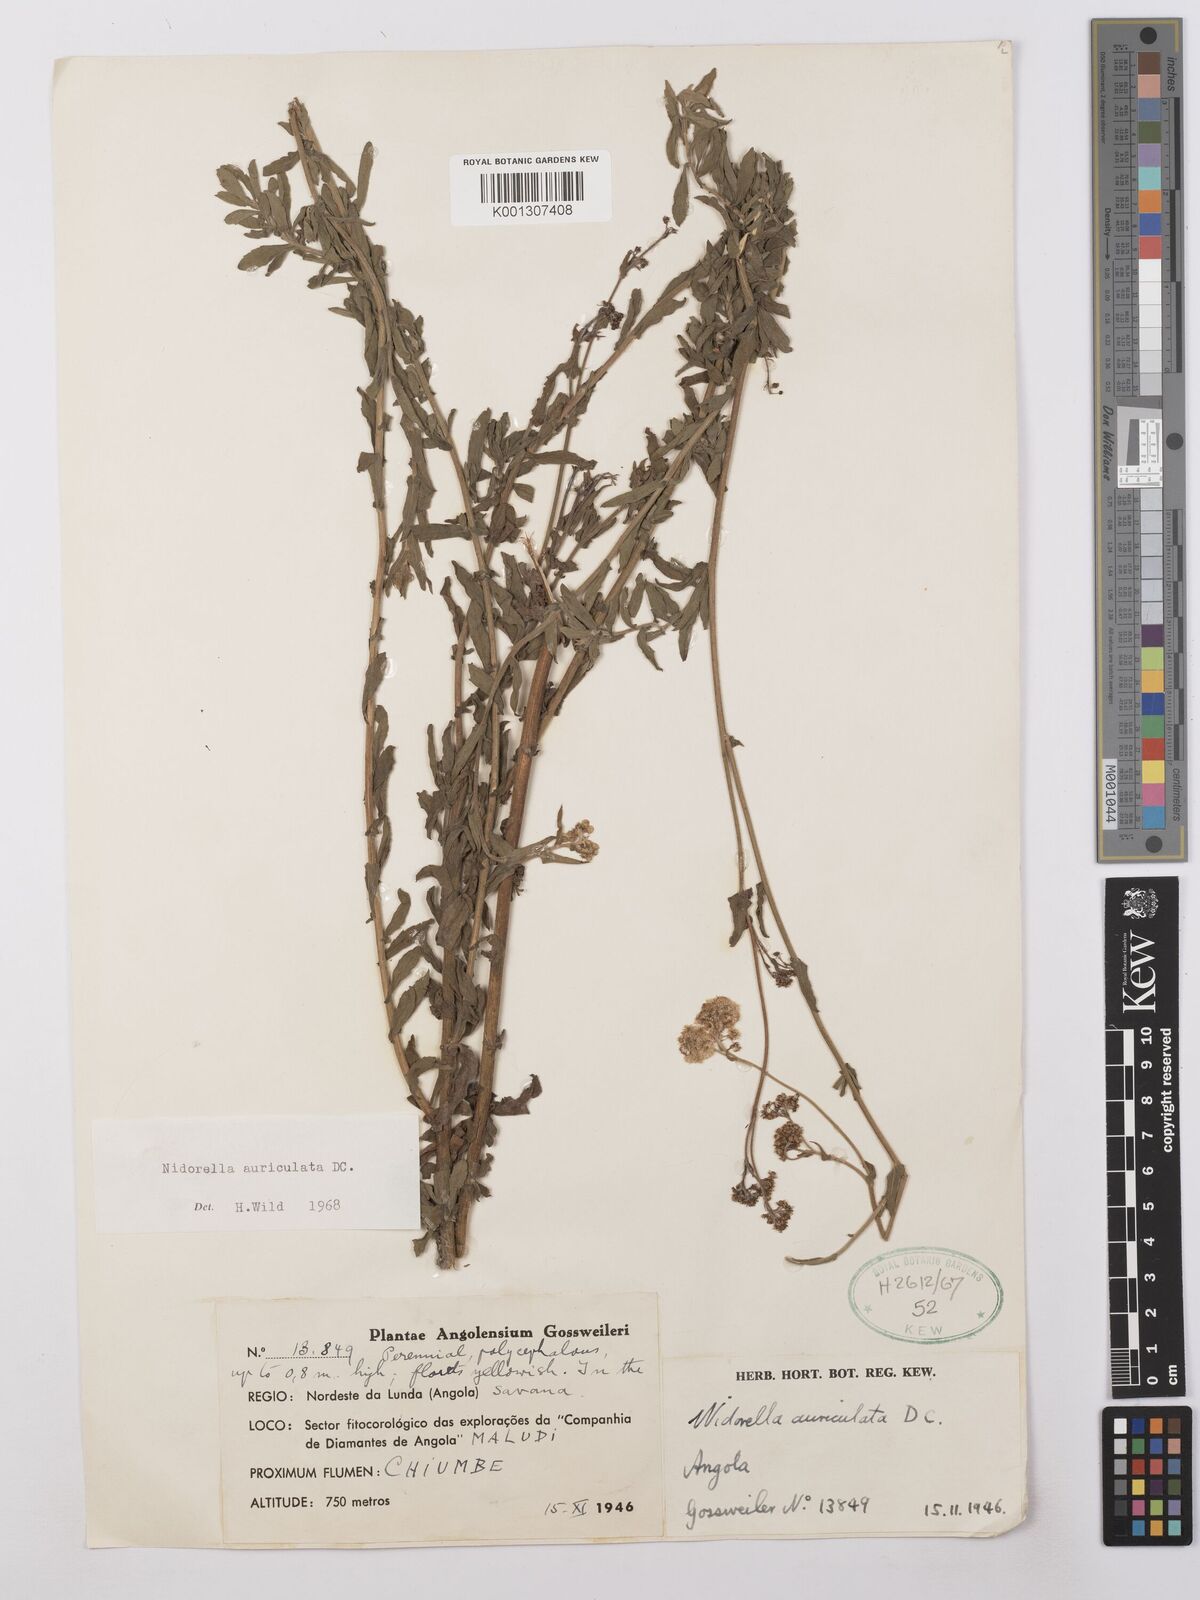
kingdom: Plantae
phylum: Tracheophyta
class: Magnoliopsida
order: Asterales
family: Asteraceae
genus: Nidorella
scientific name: Nidorella auriculata
